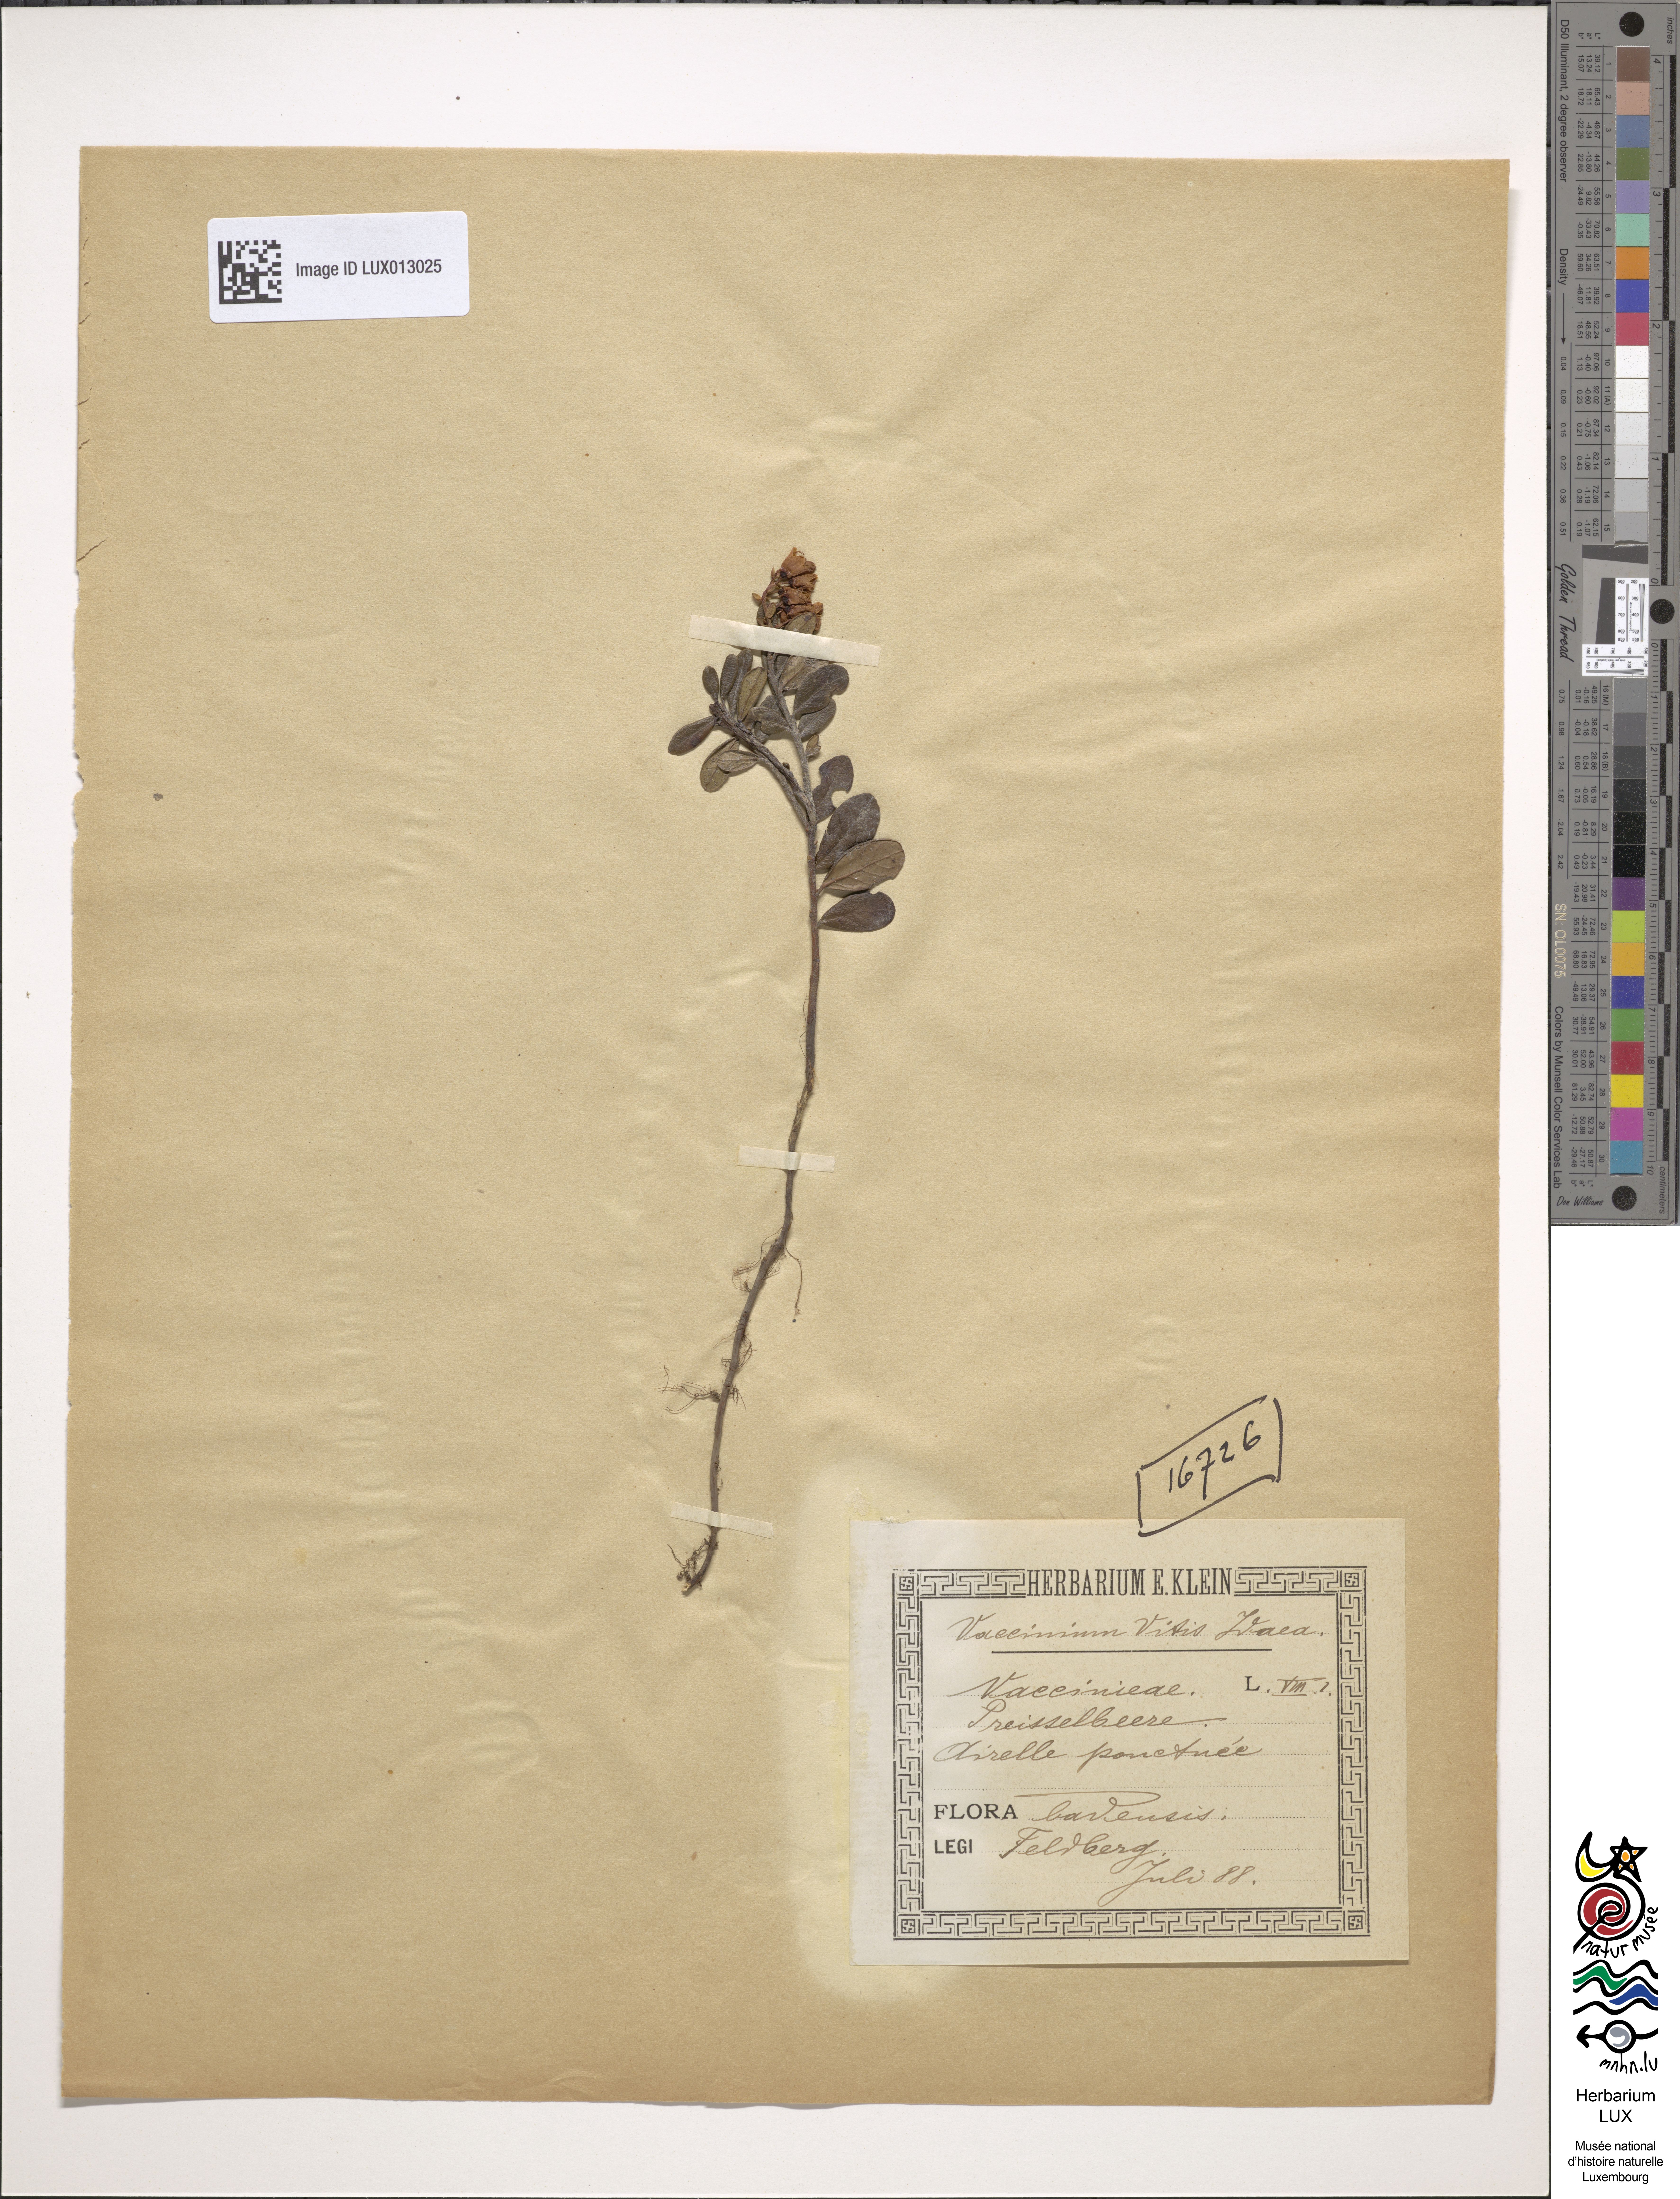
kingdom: Plantae
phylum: Tracheophyta
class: Magnoliopsida
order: Ericales
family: Ericaceae
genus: Vaccinium
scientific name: Vaccinium vitis-idaea
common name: Cowberry
